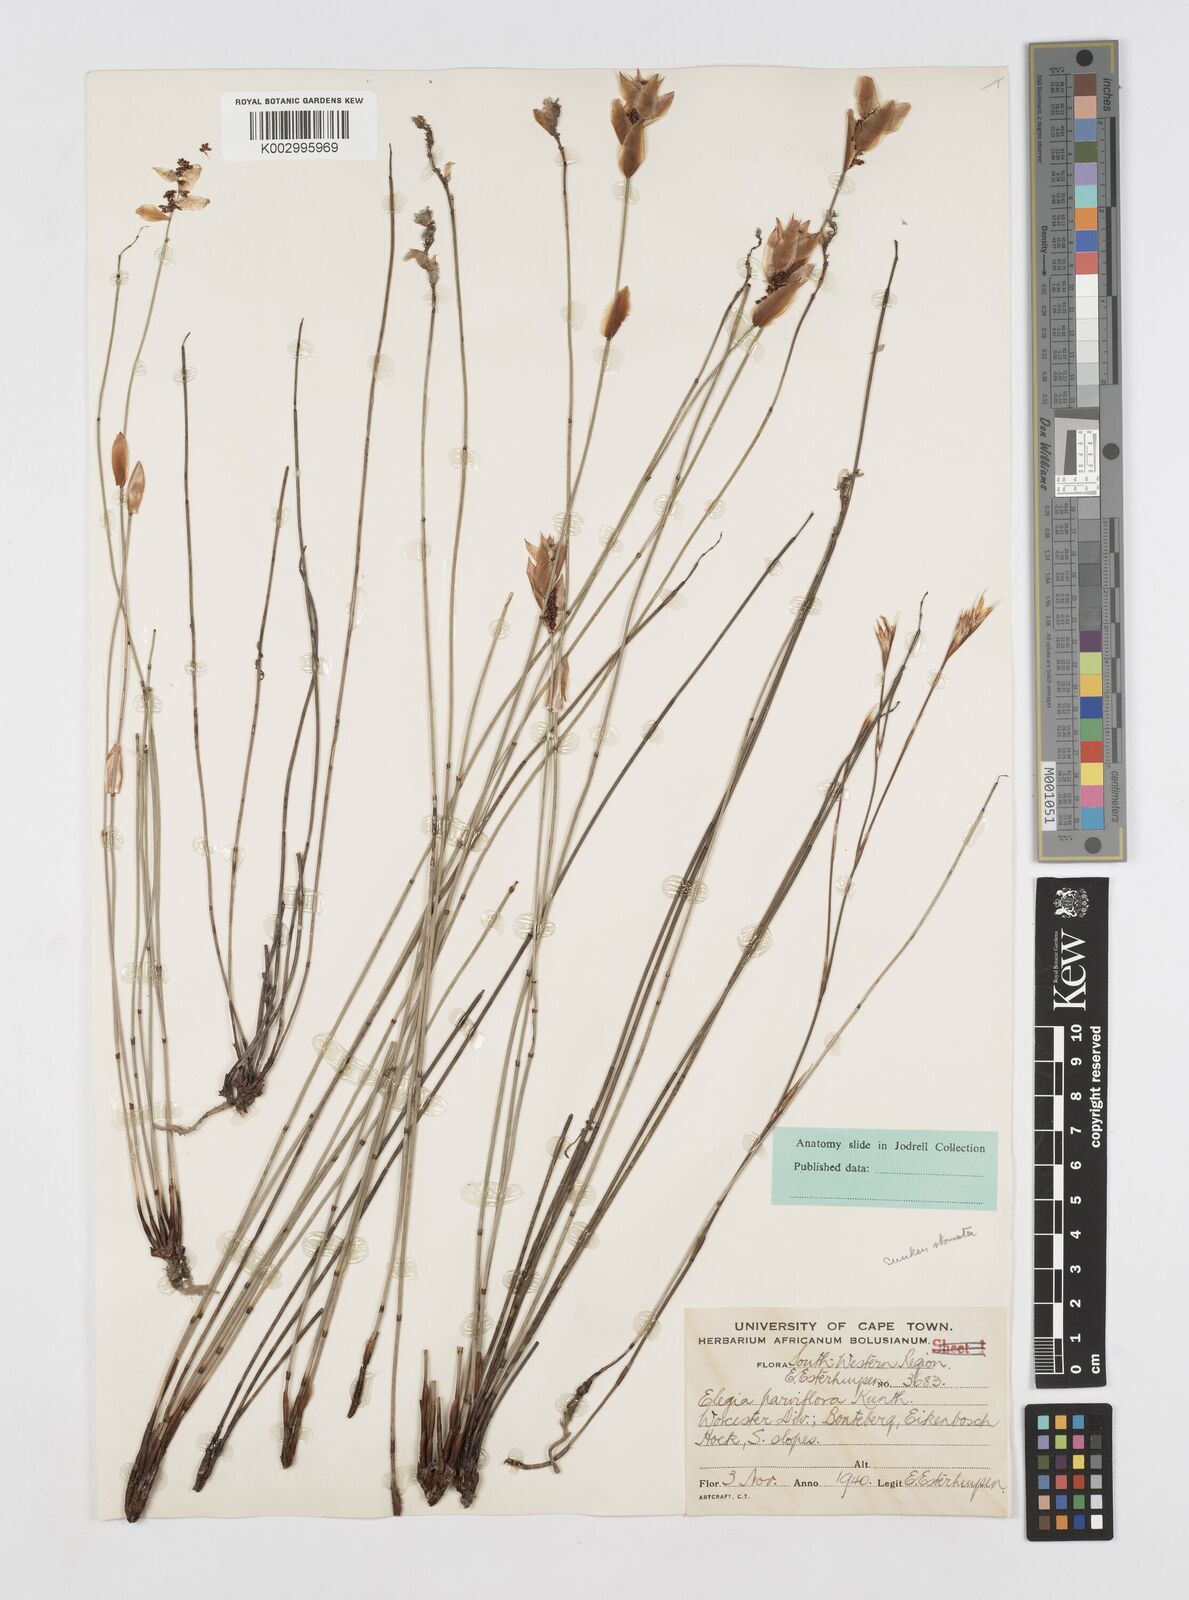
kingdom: Plantae
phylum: Tracheophyta
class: Liliopsida
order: Poales
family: Restionaceae
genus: Cannomois
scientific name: Cannomois
